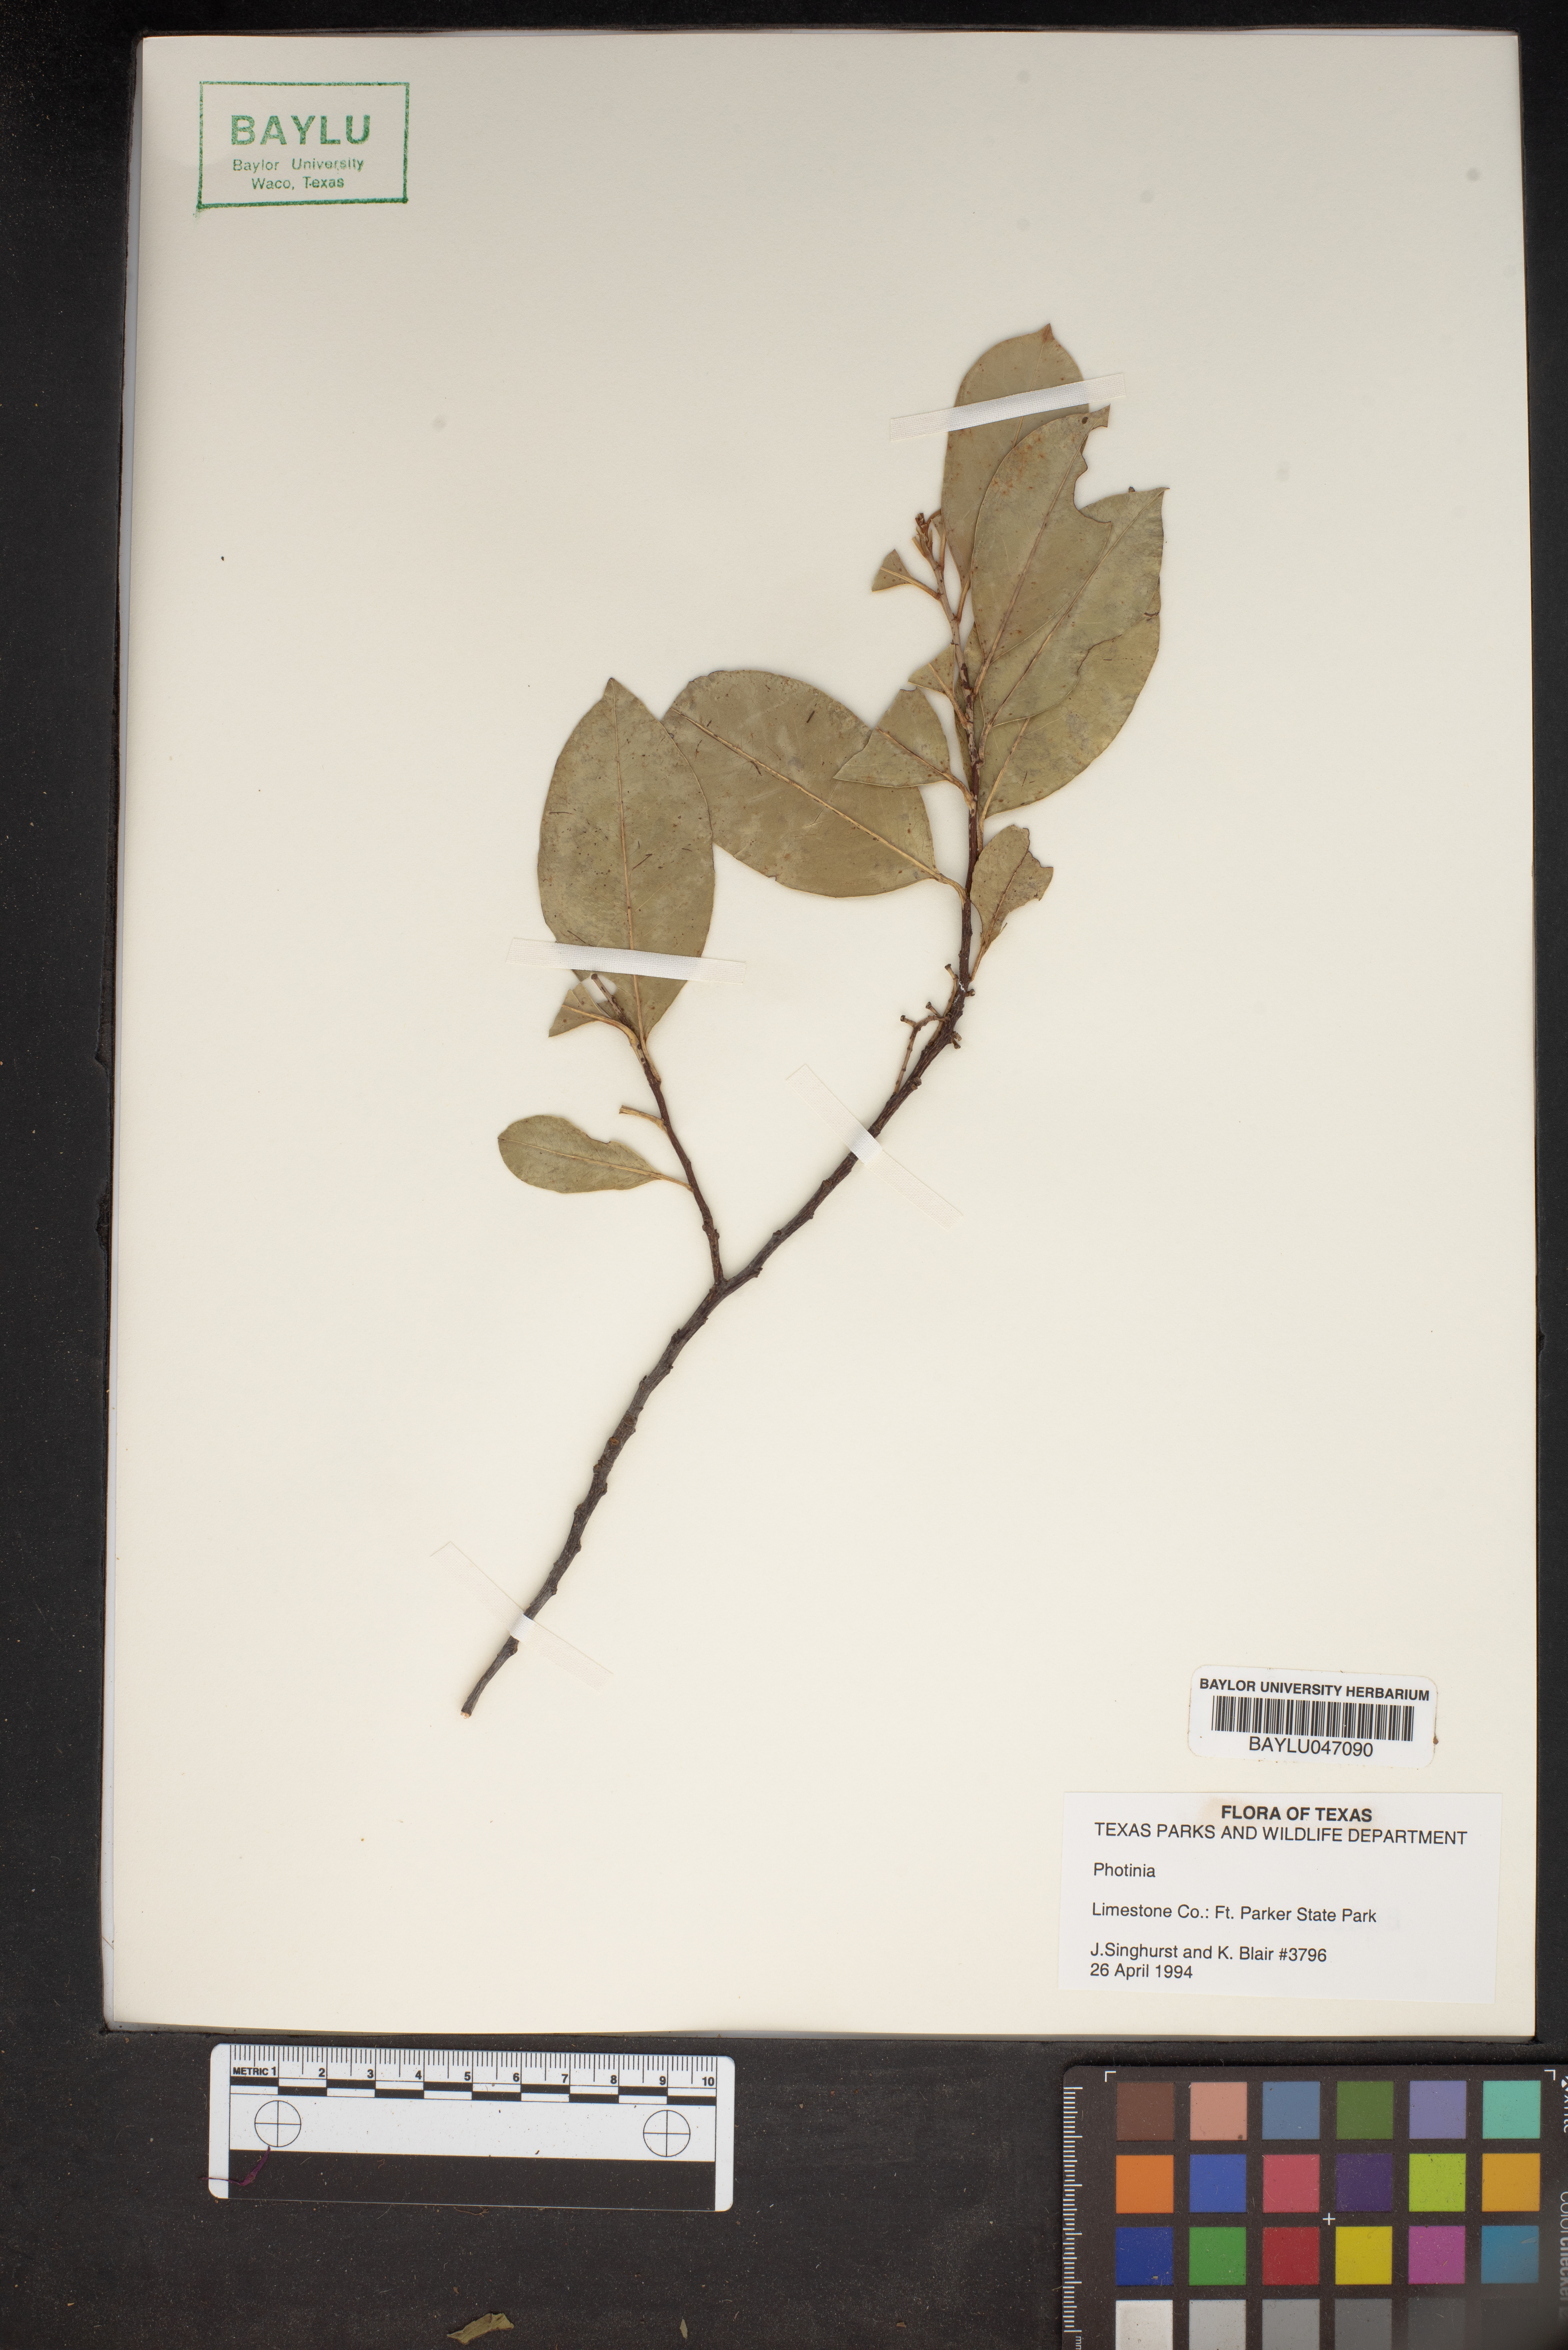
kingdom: Plantae
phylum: Tracheophyta
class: Magnoliopsida
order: Rosales
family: Rosaceae
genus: Photinia
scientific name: Photinia
